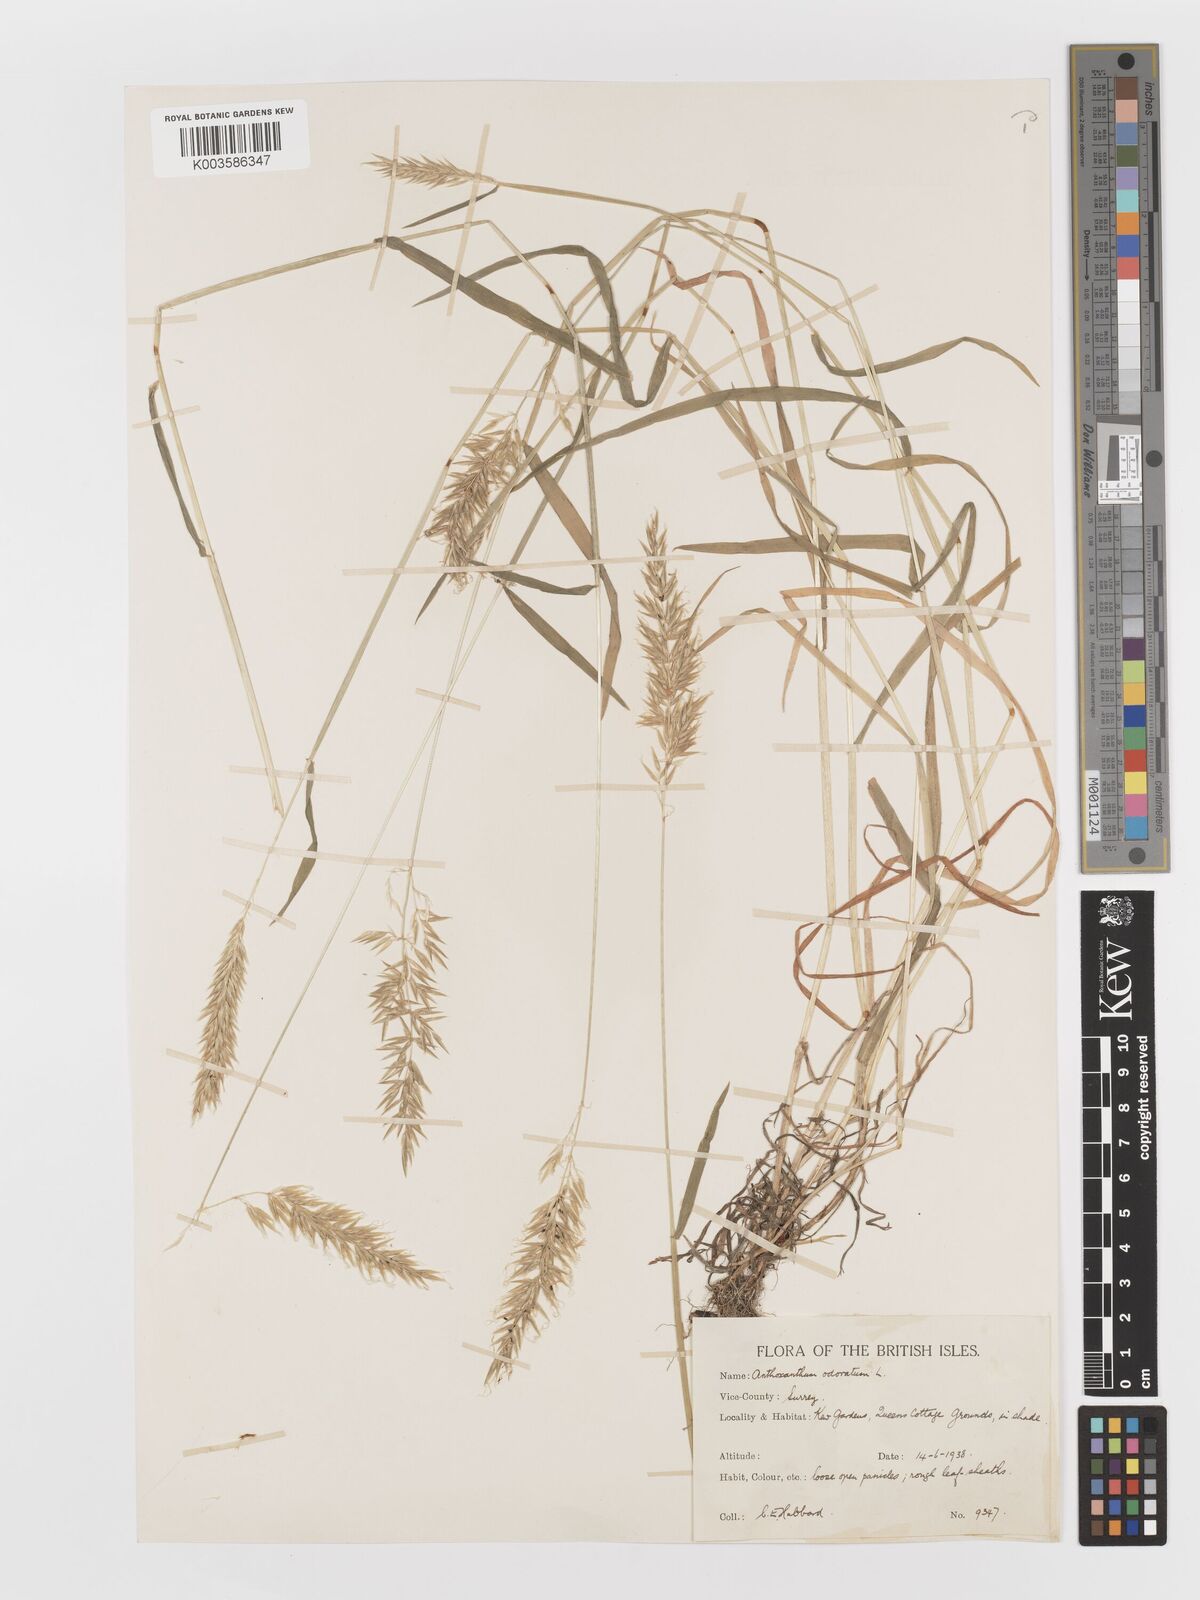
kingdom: Plantae
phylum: Tracheophyta
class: Liliopsida
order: Poales
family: Poaceae
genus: Anthoxanthum
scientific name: Anthoxanthum odoratum
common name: Sweet vernalgrass
